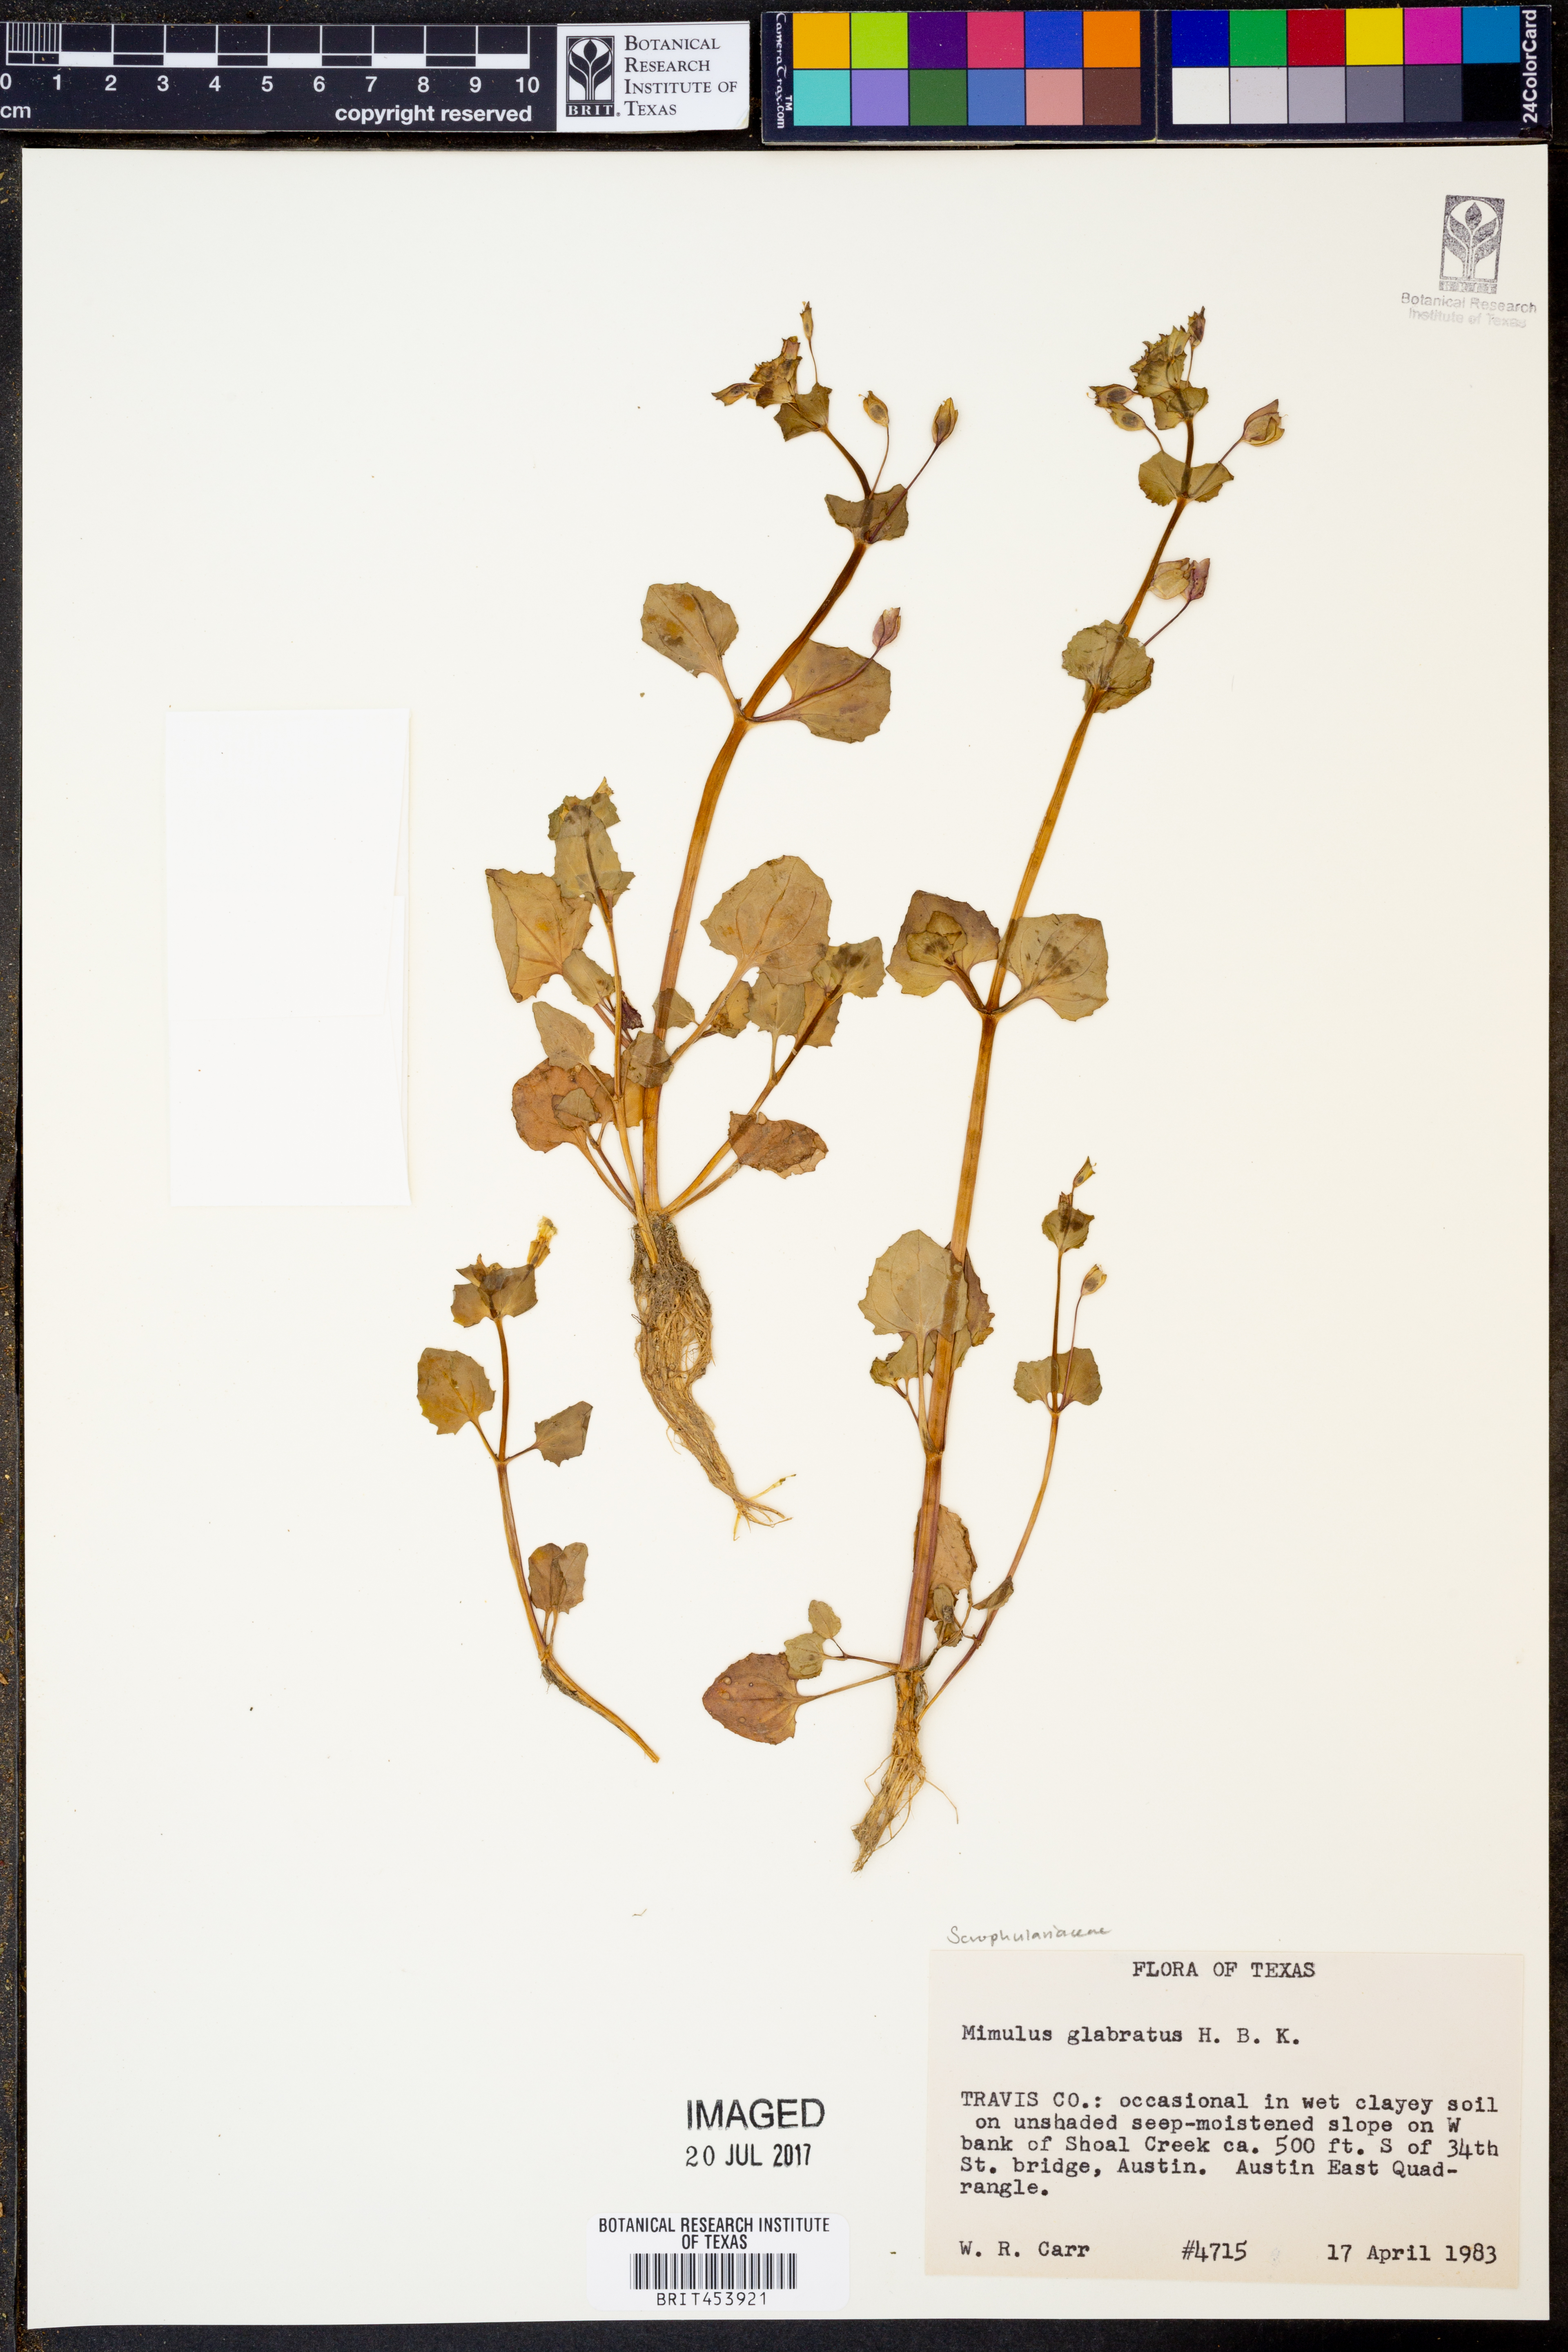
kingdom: Plantae
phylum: Tracheophyta
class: Magnoliopsida
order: Lamiales
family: Phrymaceae
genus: Erythranthe
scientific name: Erythranthe glabrata
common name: Round-leaved monkeyflower
